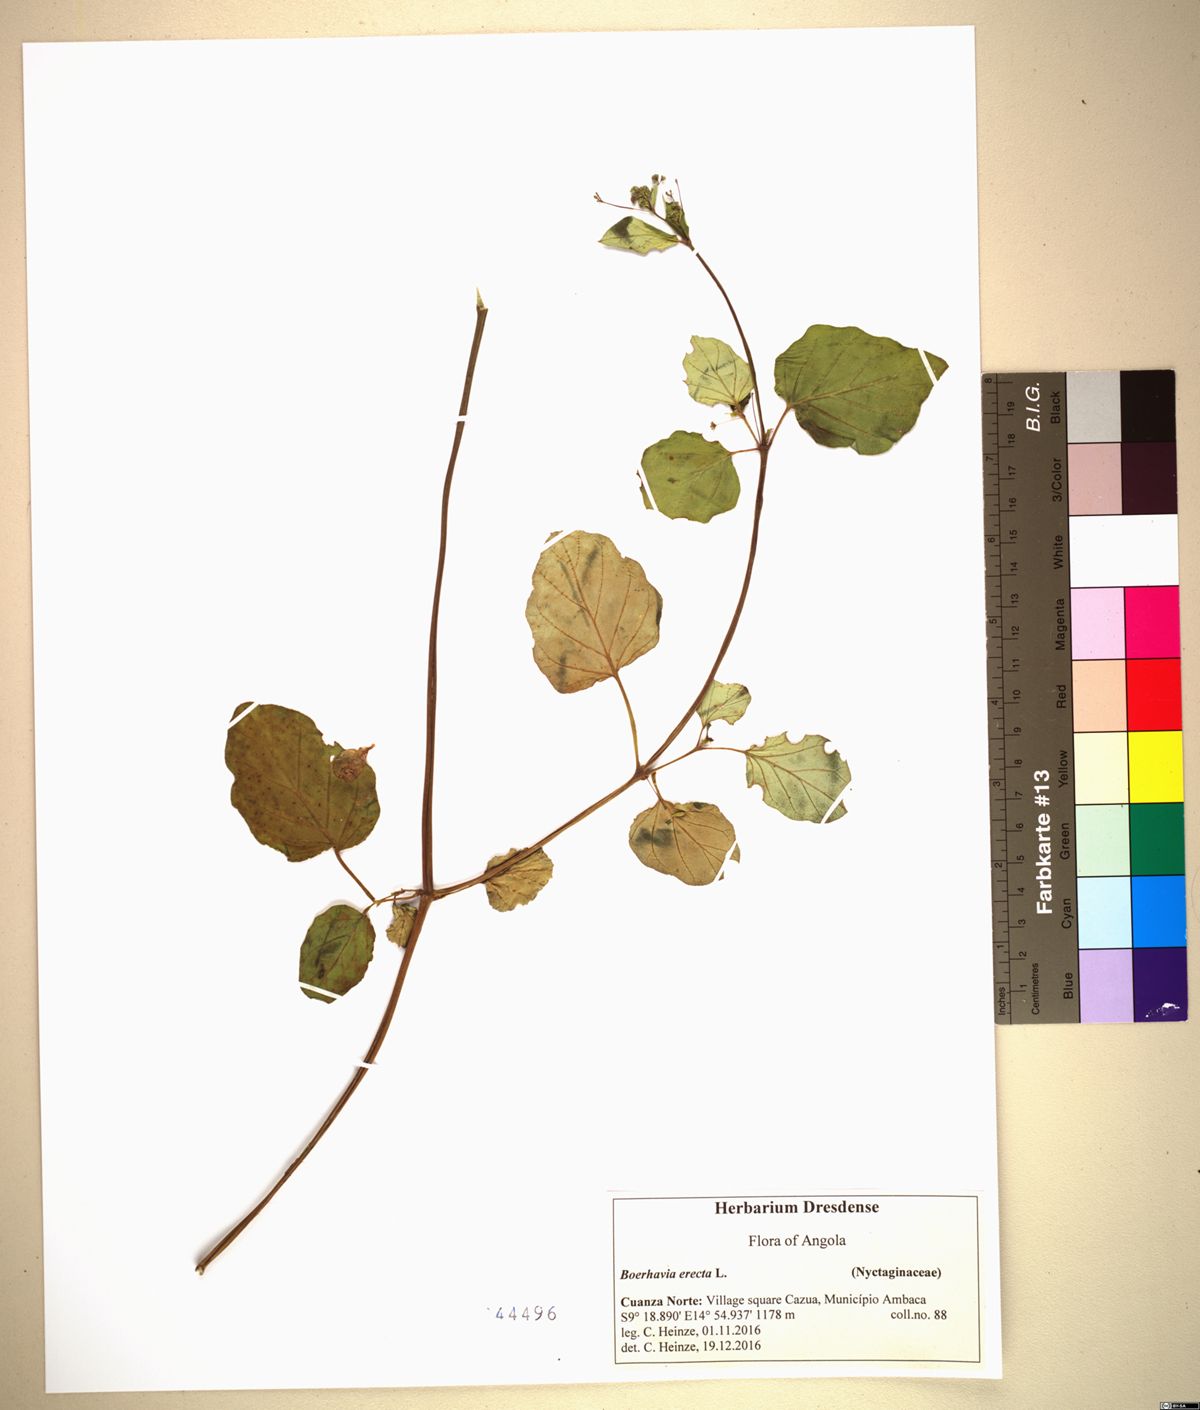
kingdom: Plantae
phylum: Tracheophyta
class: Magnoliopsida
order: Caryophyllales
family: Nyctaginaceae
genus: Boerhavia
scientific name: Boerhavia diffusa
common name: Red spiderling
